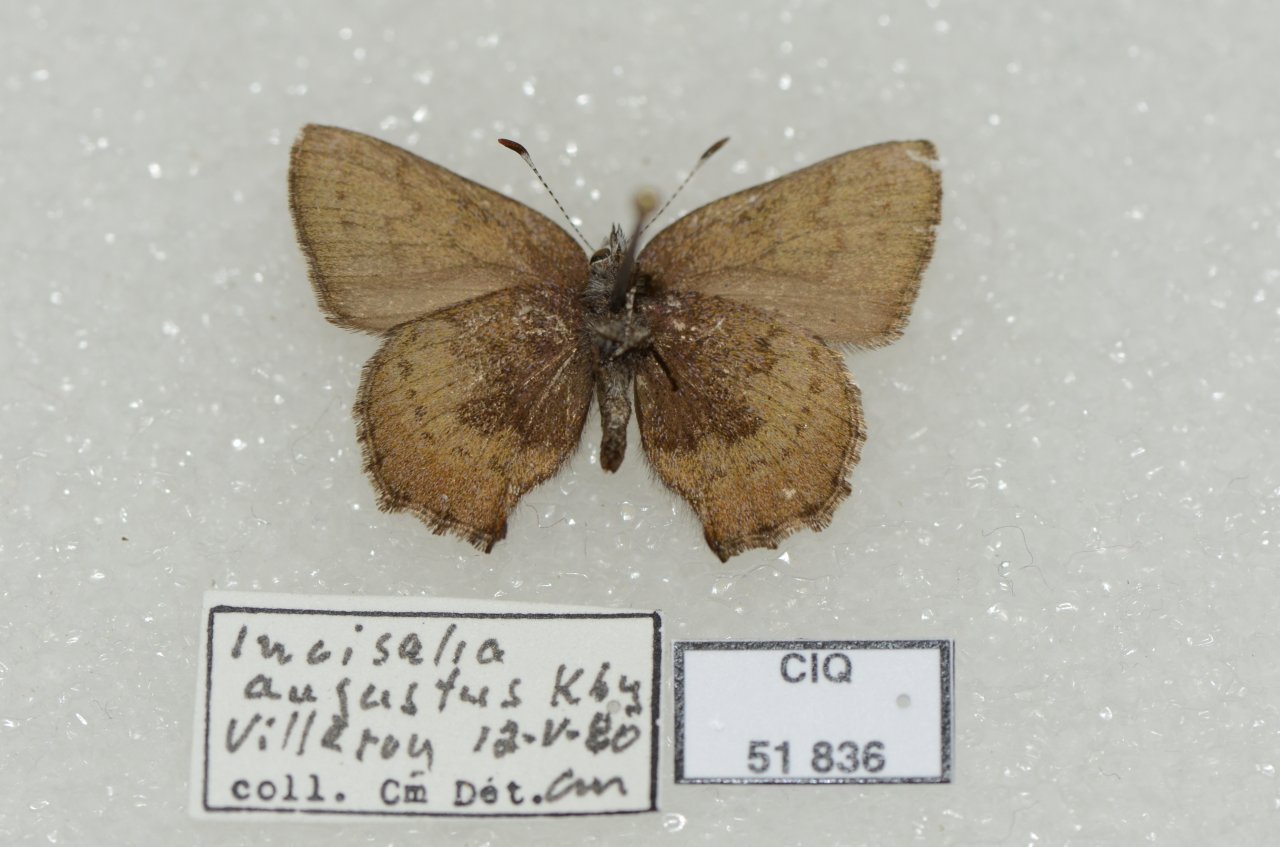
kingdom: Animalia
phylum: Arthropoda
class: Insecta
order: Lepidoptera
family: Lycaenidae
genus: Incisalia
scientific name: Incisalia irioides
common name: Brown Elfin
